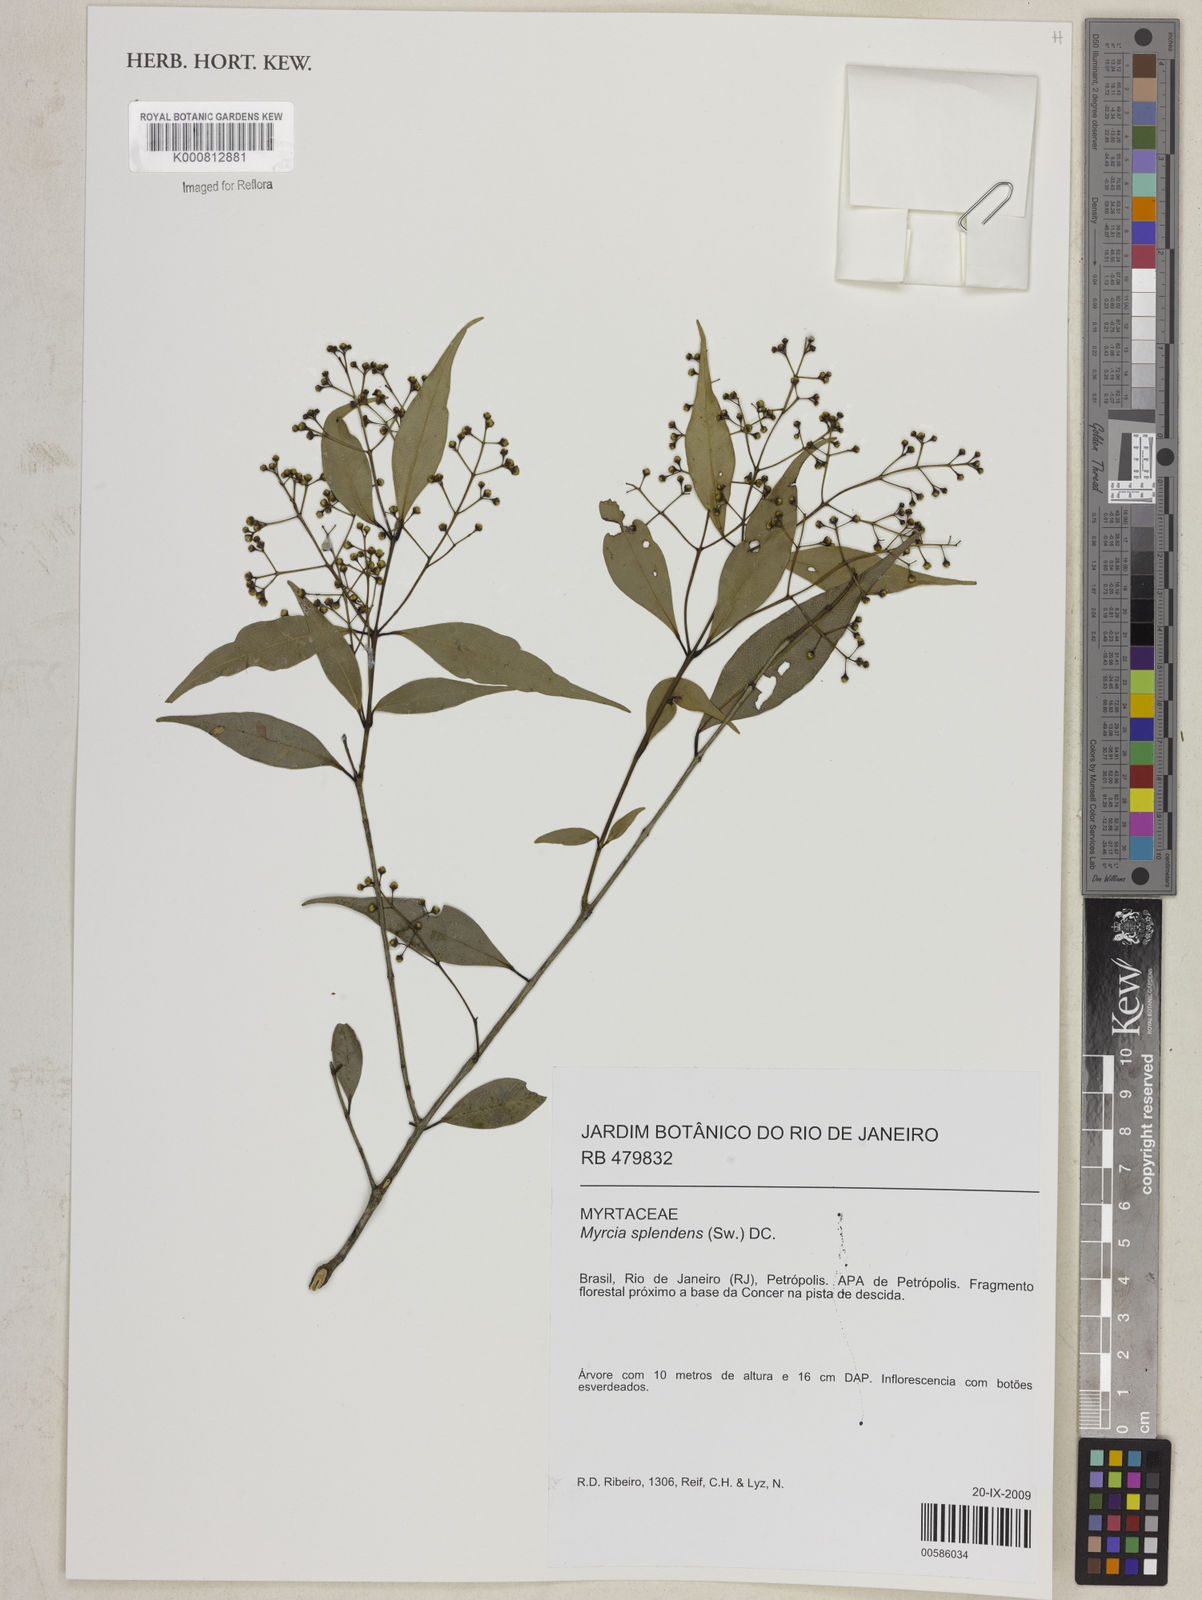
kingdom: Plantae
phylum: Tracheophyta
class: Magnoliopsida
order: Myrtales
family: Myrtaceae
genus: Myrcia
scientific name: Myrcia splendens
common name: Surinam cherry
